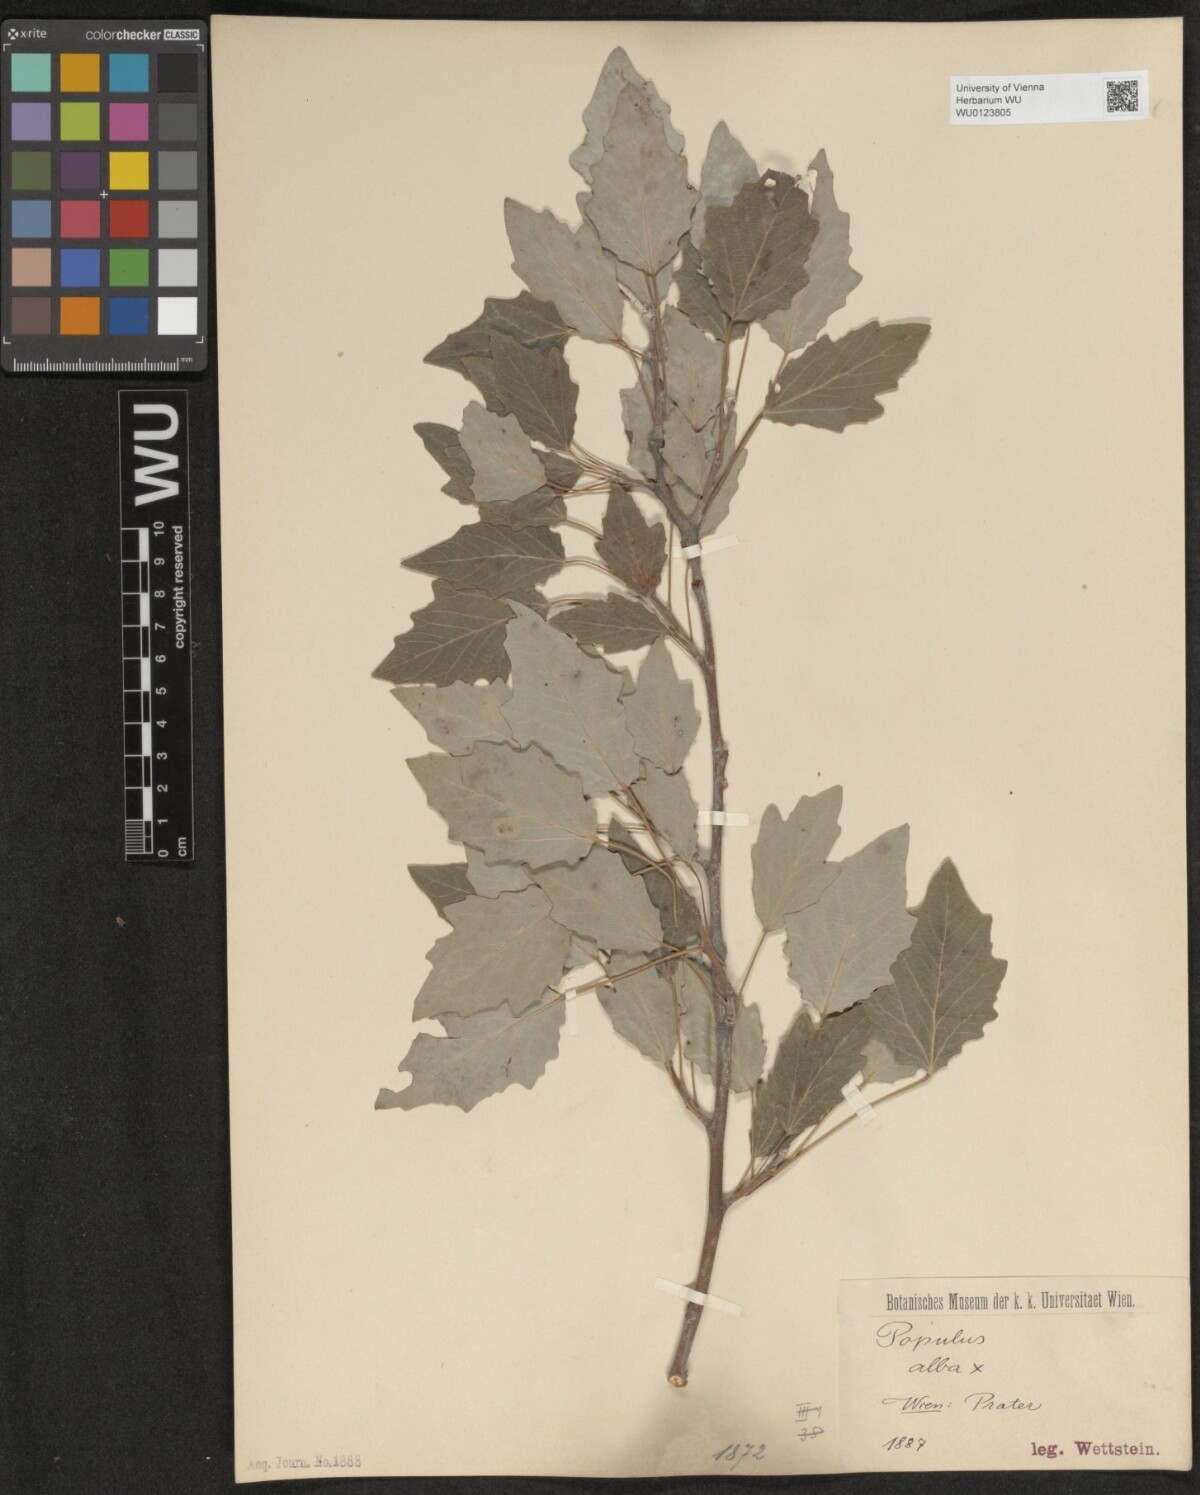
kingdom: Plantae
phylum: Tracheophyta
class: Magnoliopsida
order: Malpighiales
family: Salicaceae
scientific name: Salicaceae
